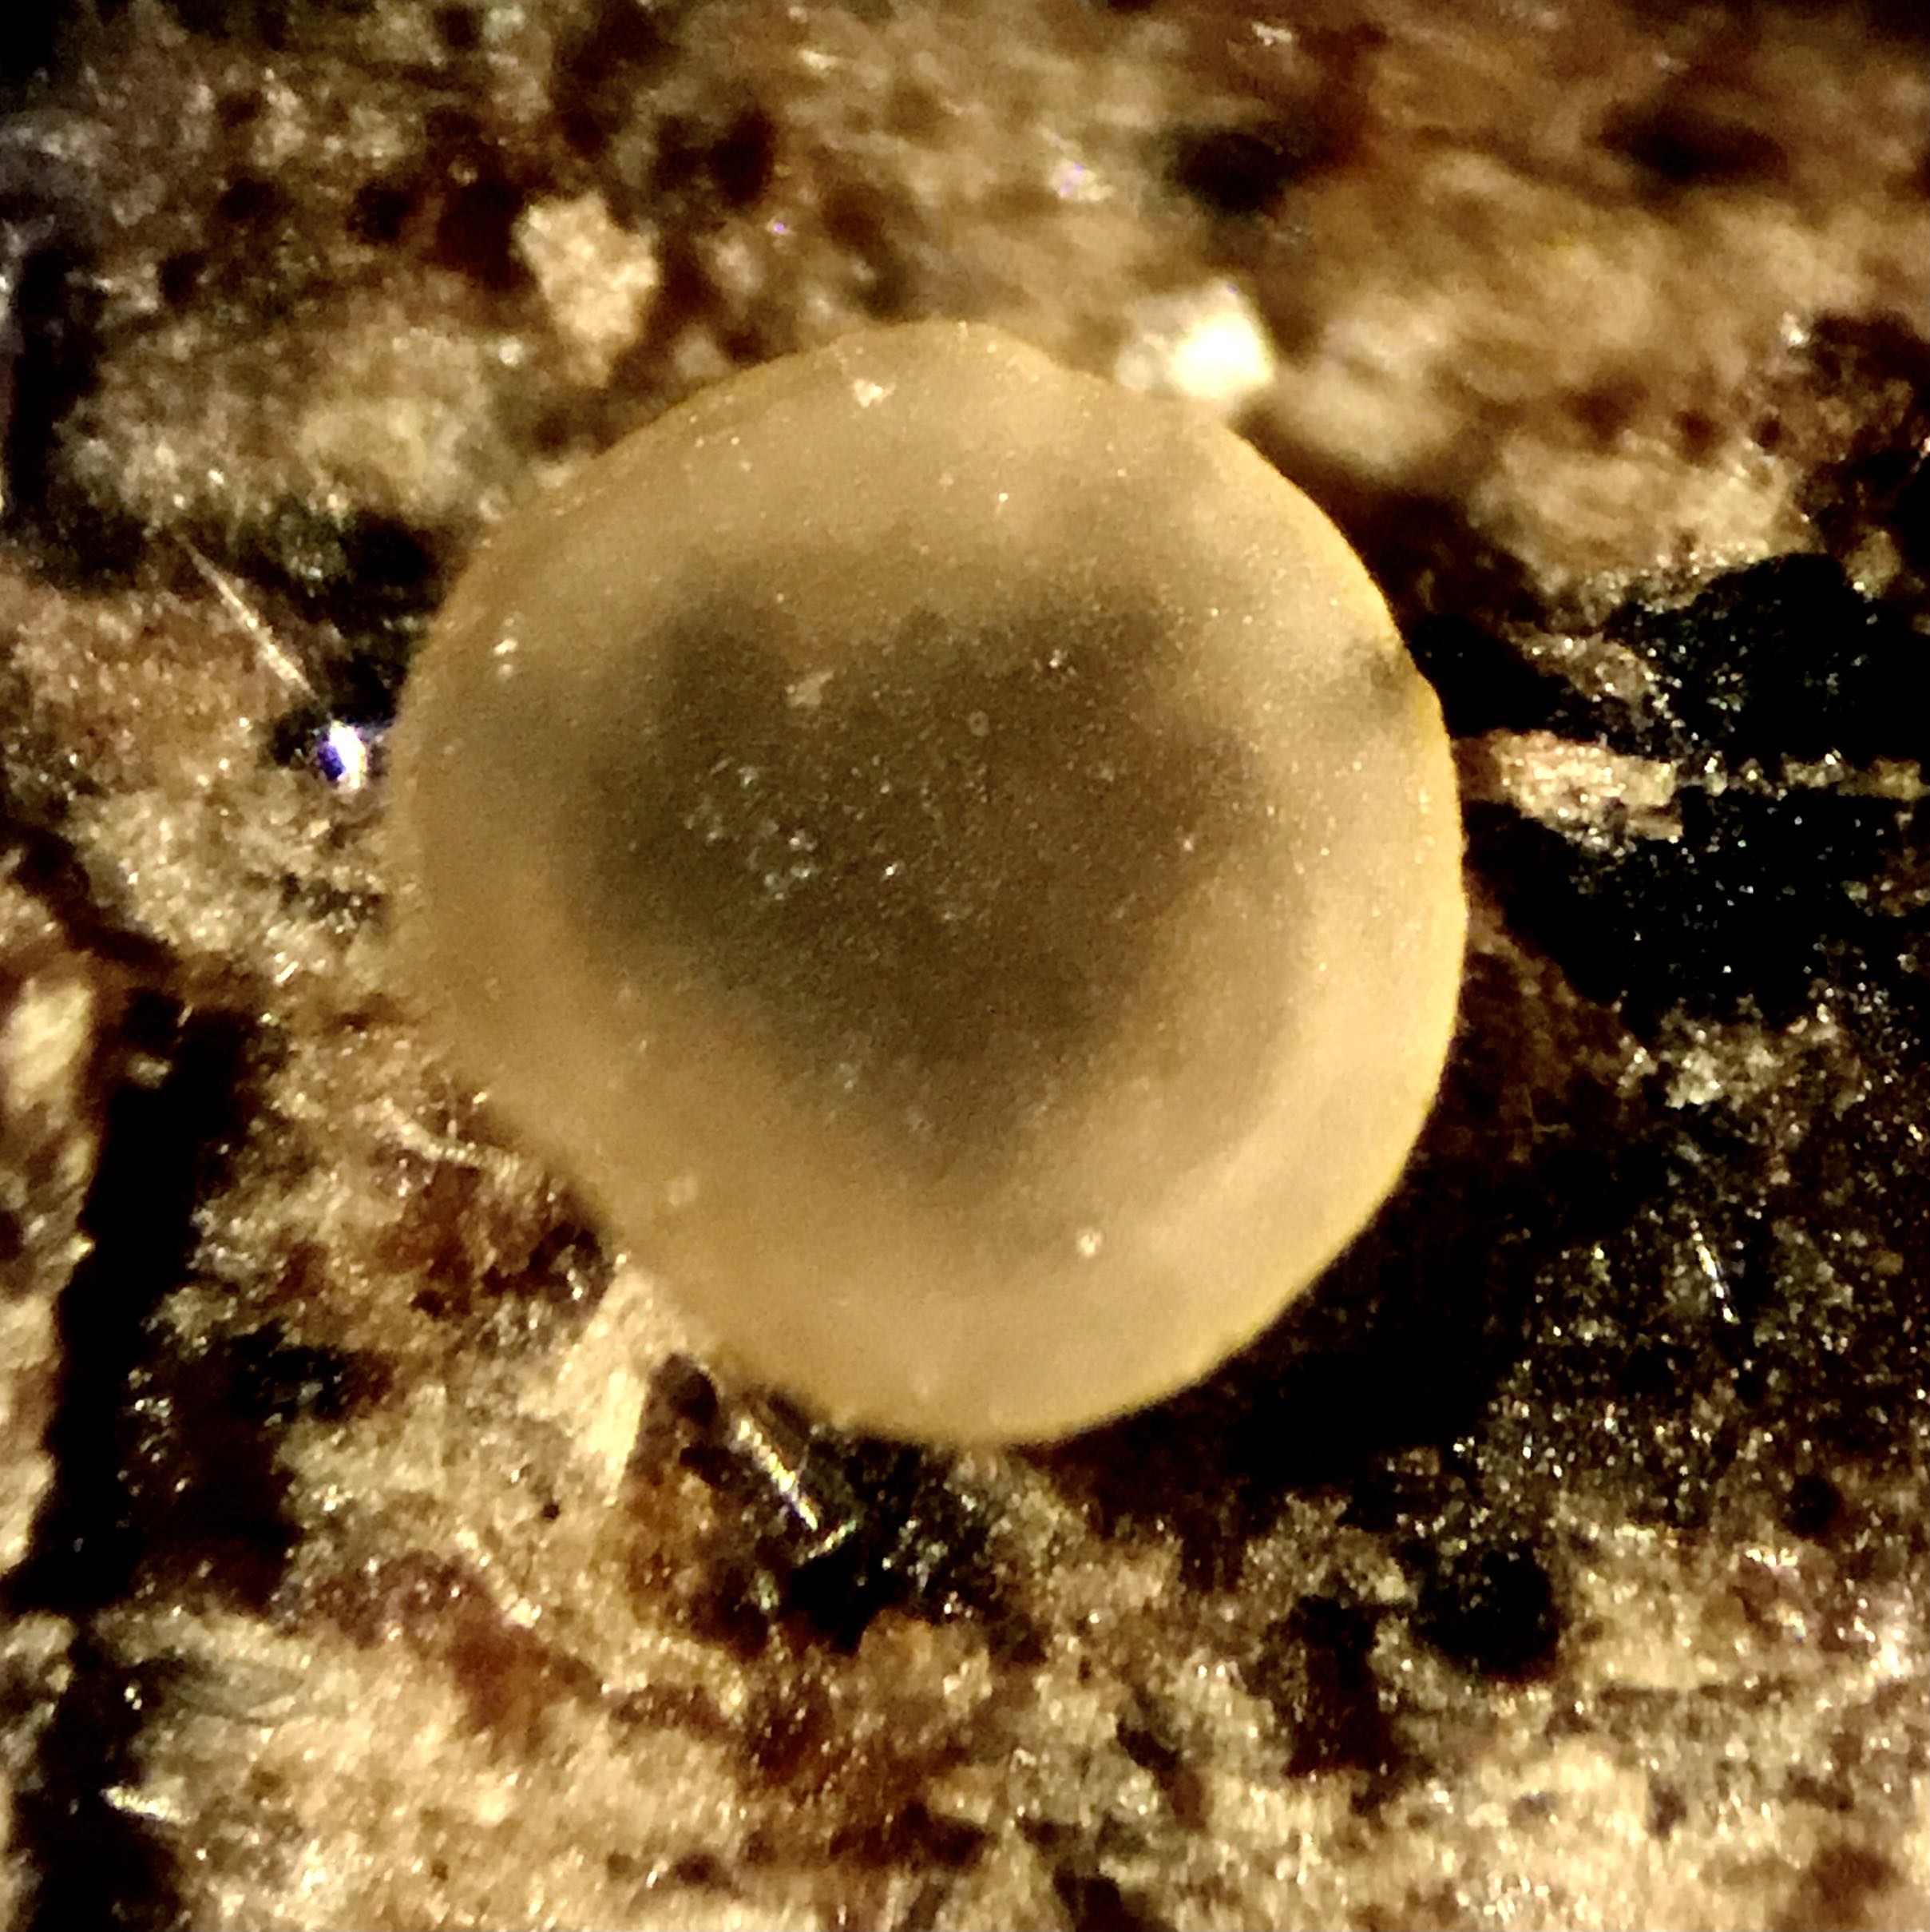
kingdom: Fungi
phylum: Ascomycota
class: Orbiliomycetes
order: Orbiliales
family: Orbiliaceae
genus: Hyalorbilia
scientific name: Hyalorbilia
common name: voksskive
